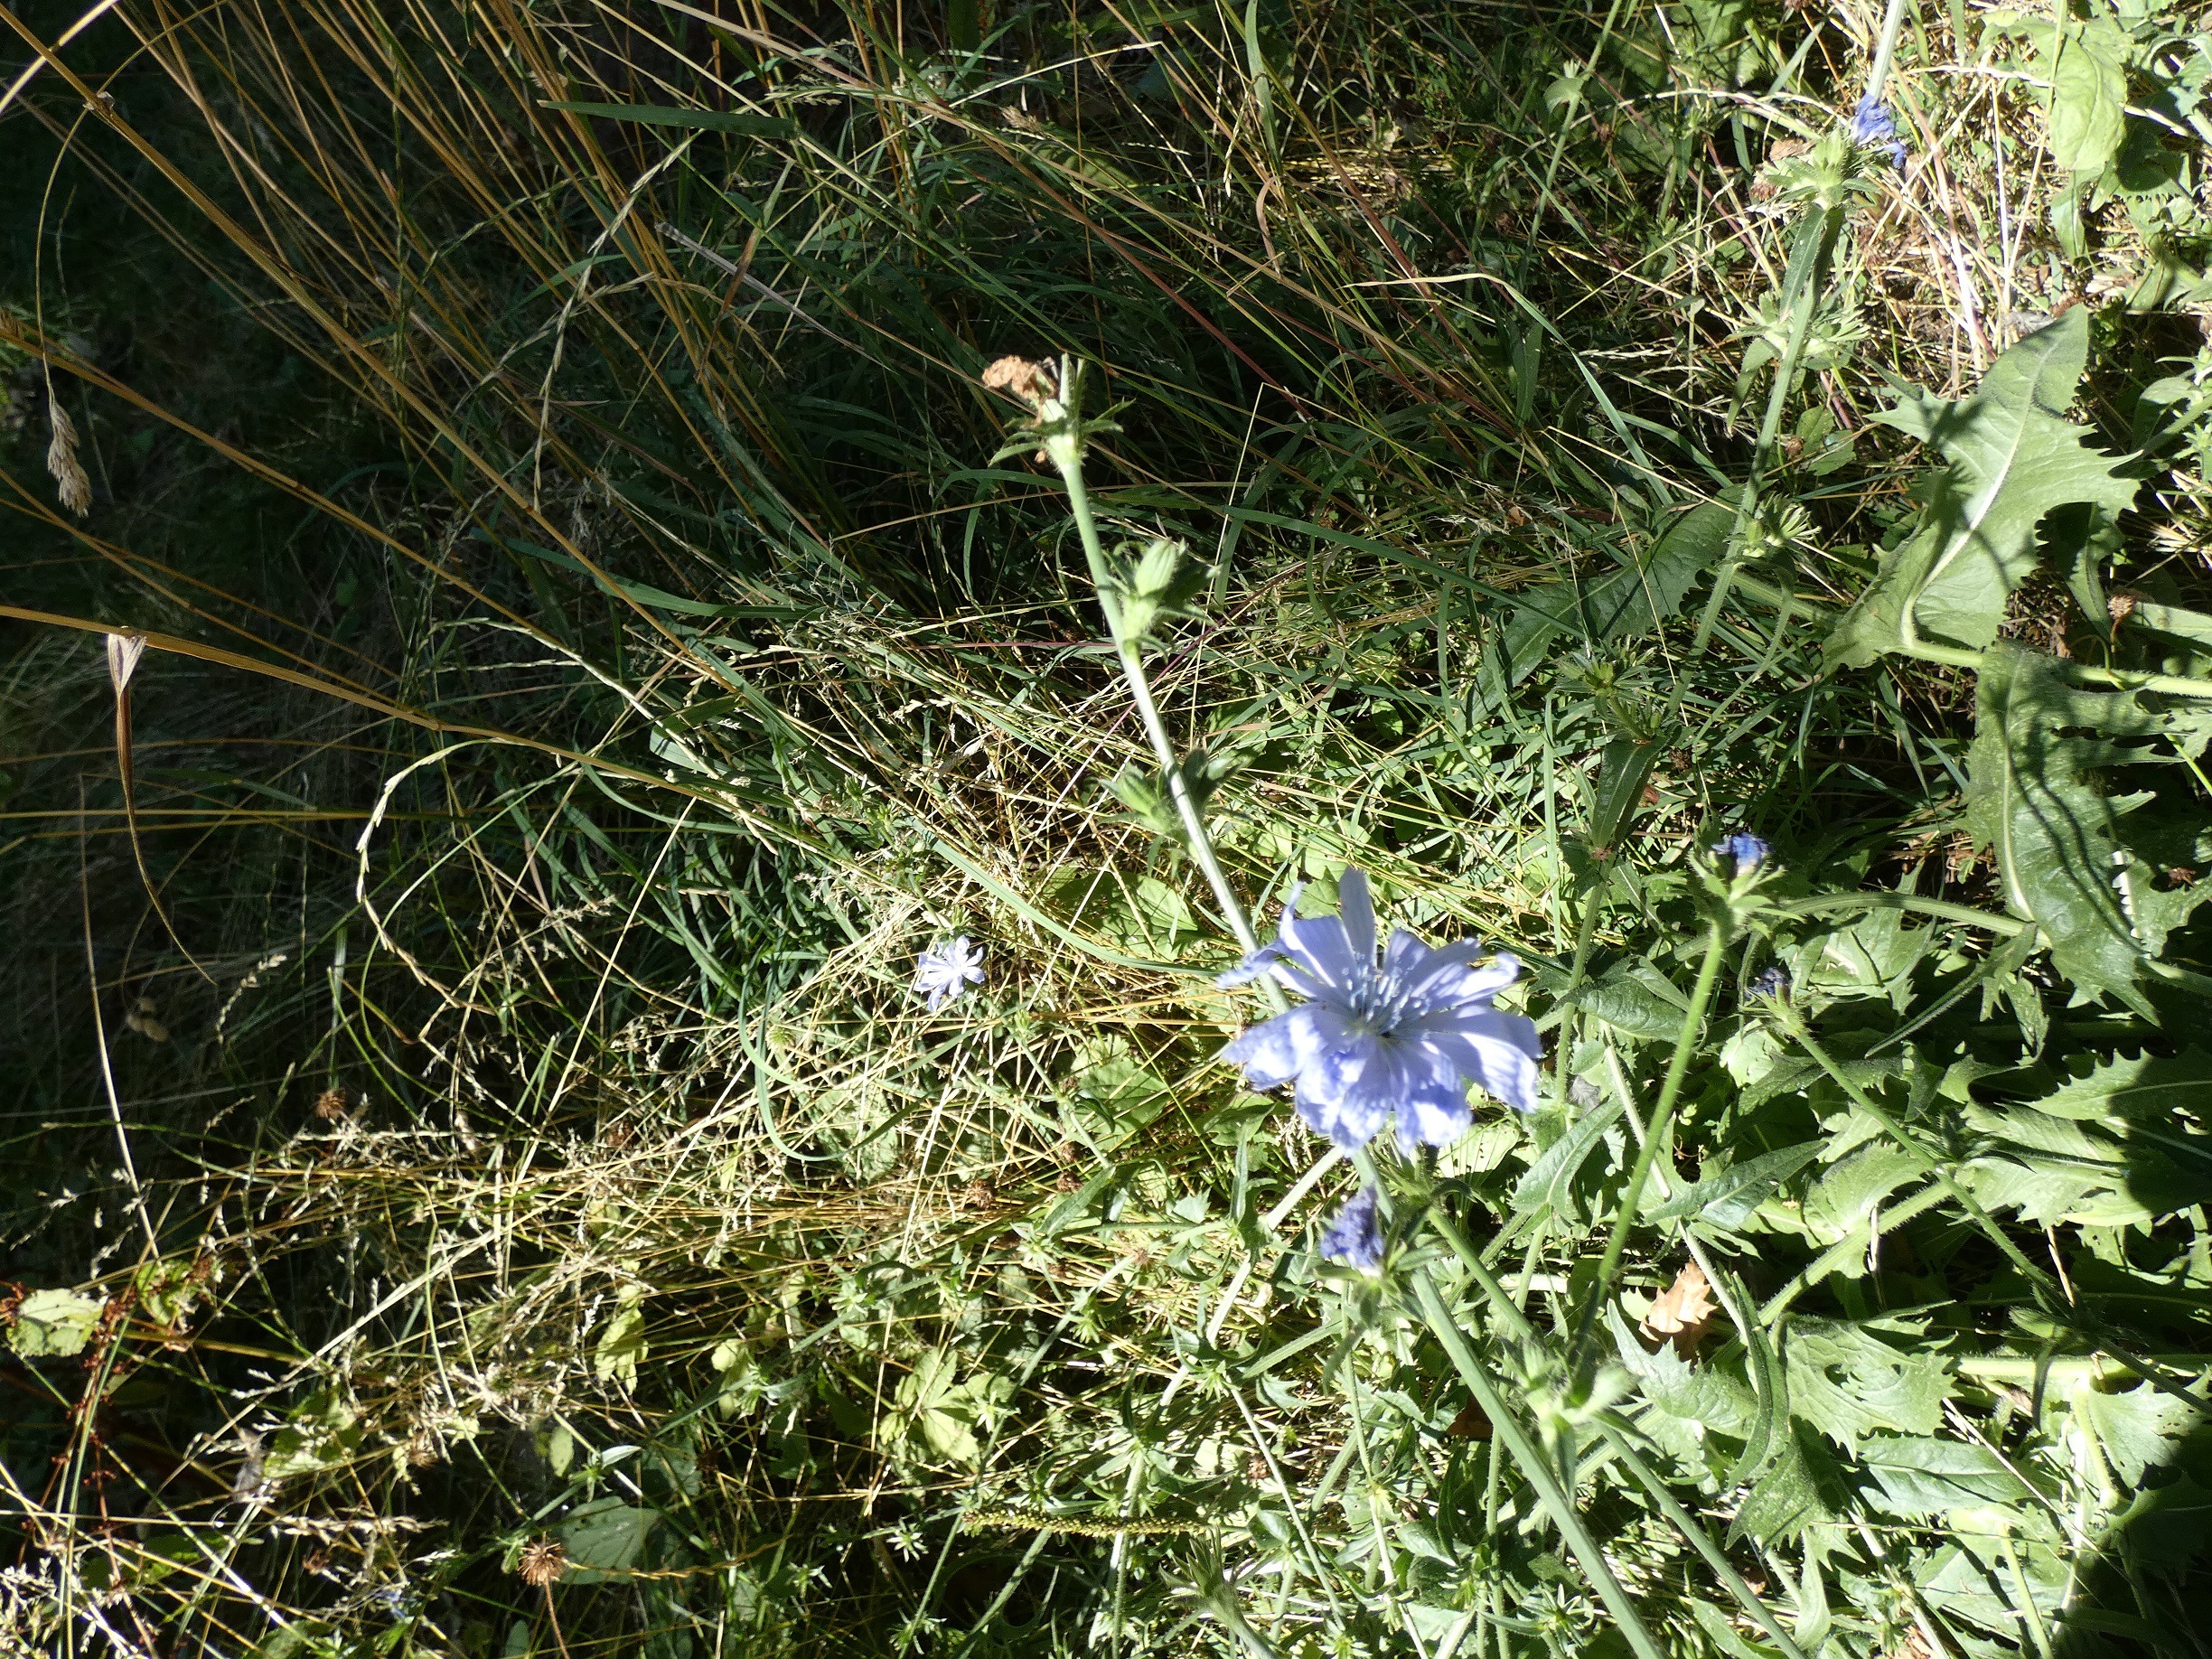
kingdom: Plantae
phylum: Tracheophyta
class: Magnoliopsida
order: Asterales
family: Asteraceae
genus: Cichorium
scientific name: Cichorium intybus
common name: Cikorie
